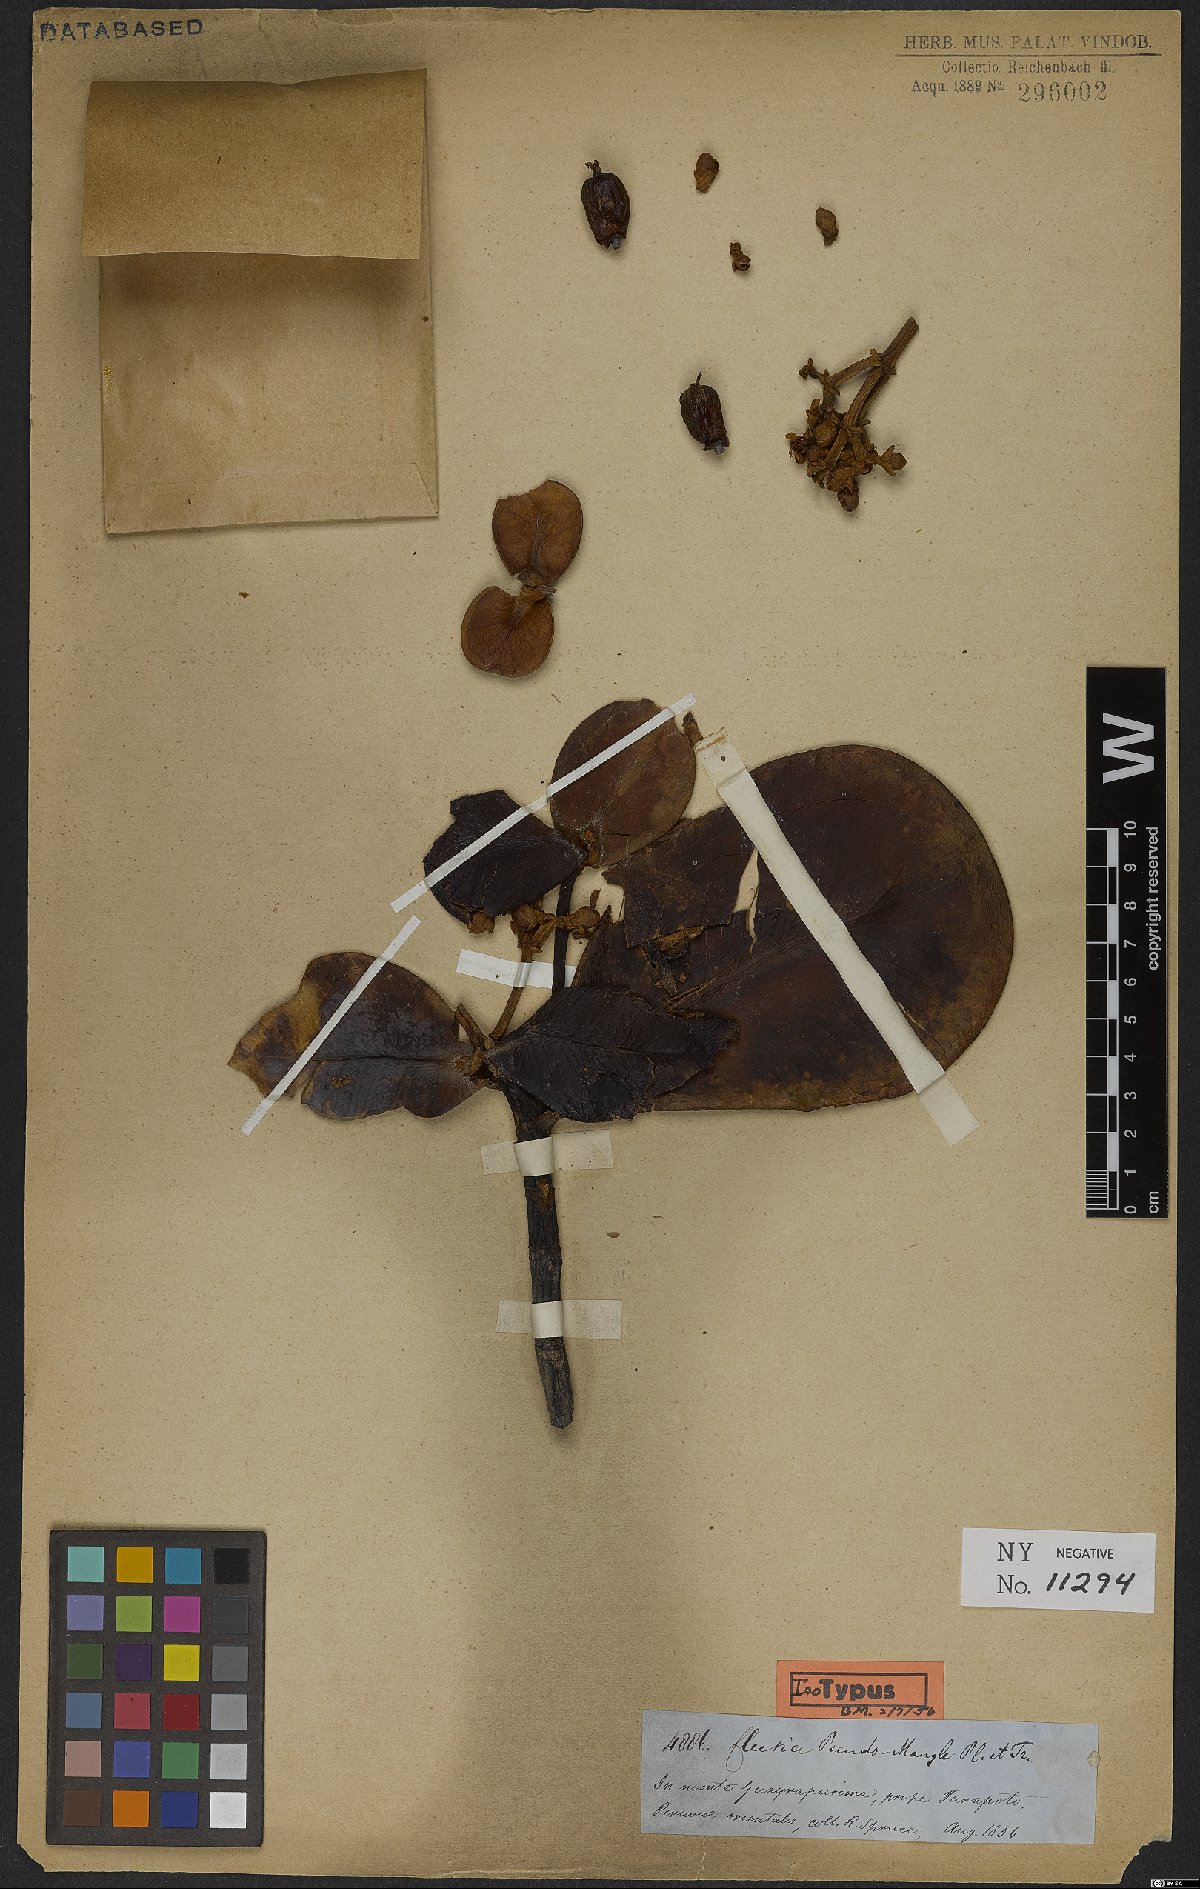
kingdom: Plantae
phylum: Tracheophyta
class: Magnoliopsida
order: Malpighiales
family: Clusiaceae
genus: Clusia
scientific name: Clusia pseudomangle
